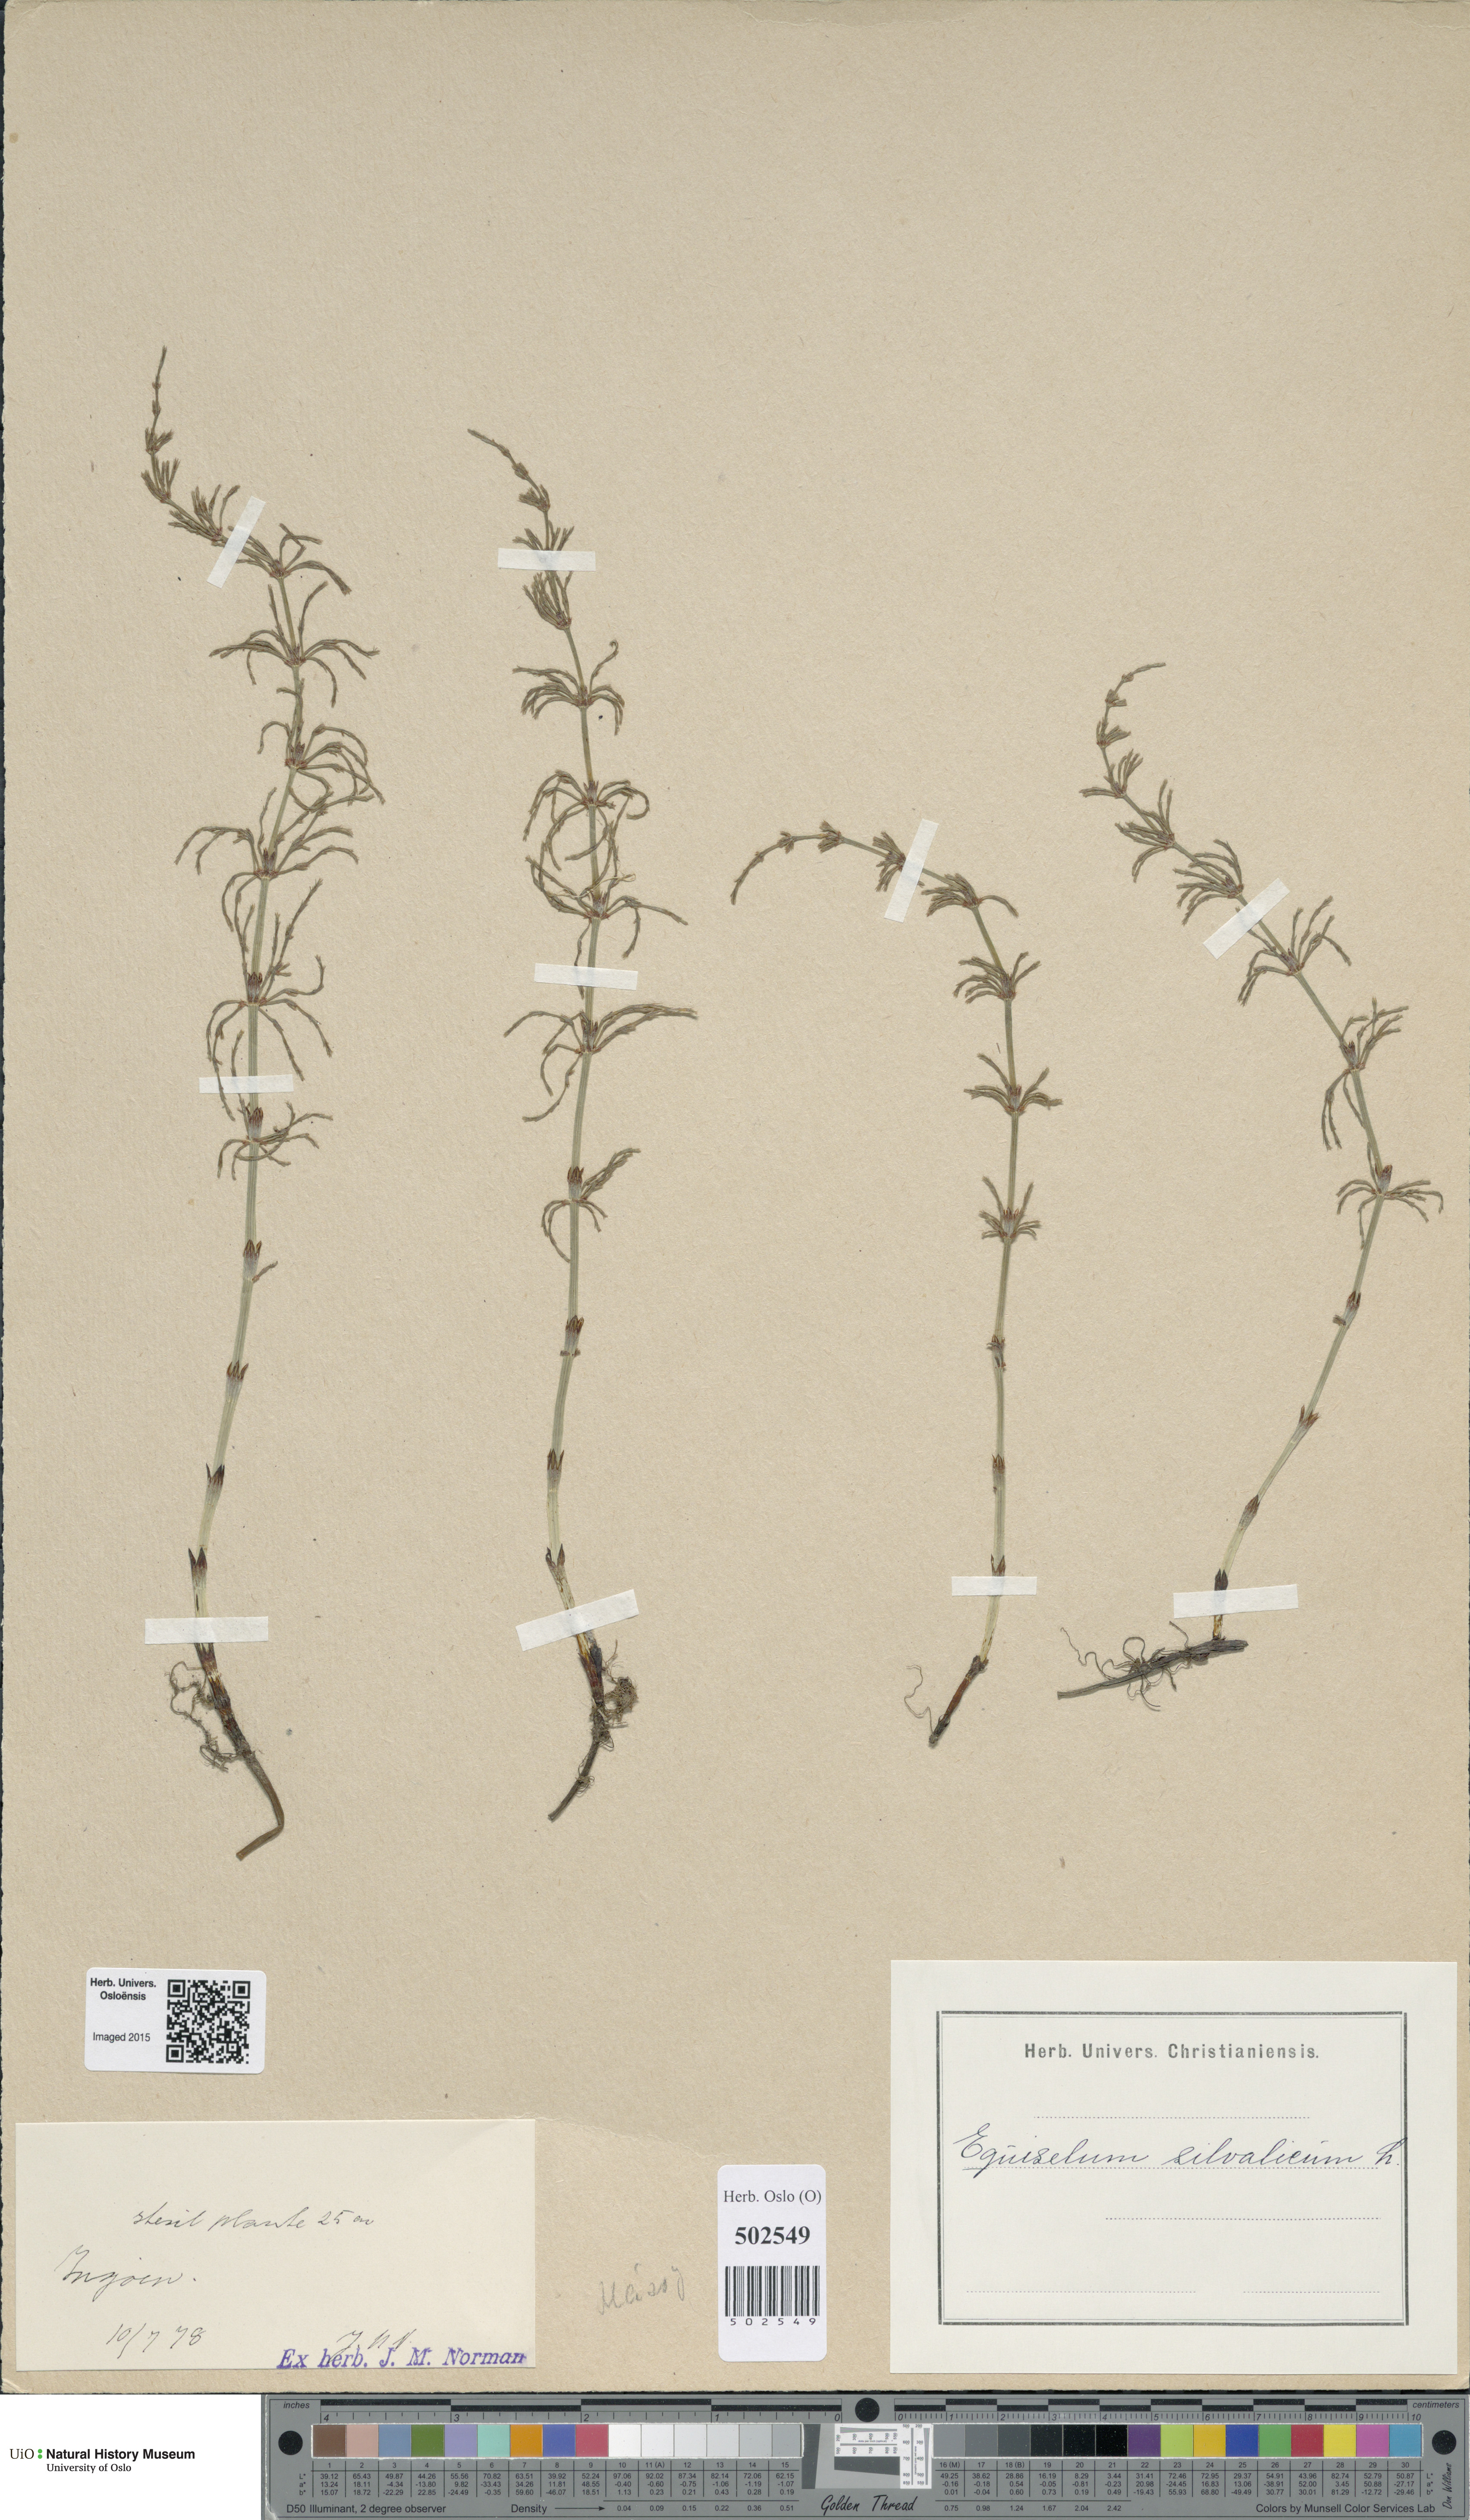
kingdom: Plantae
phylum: Tracheophyta
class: Polypodiopsida
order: Equisetales
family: Equisetaceae
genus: Equisetum
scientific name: Equisetum sylvaticum
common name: Wood horsetail
